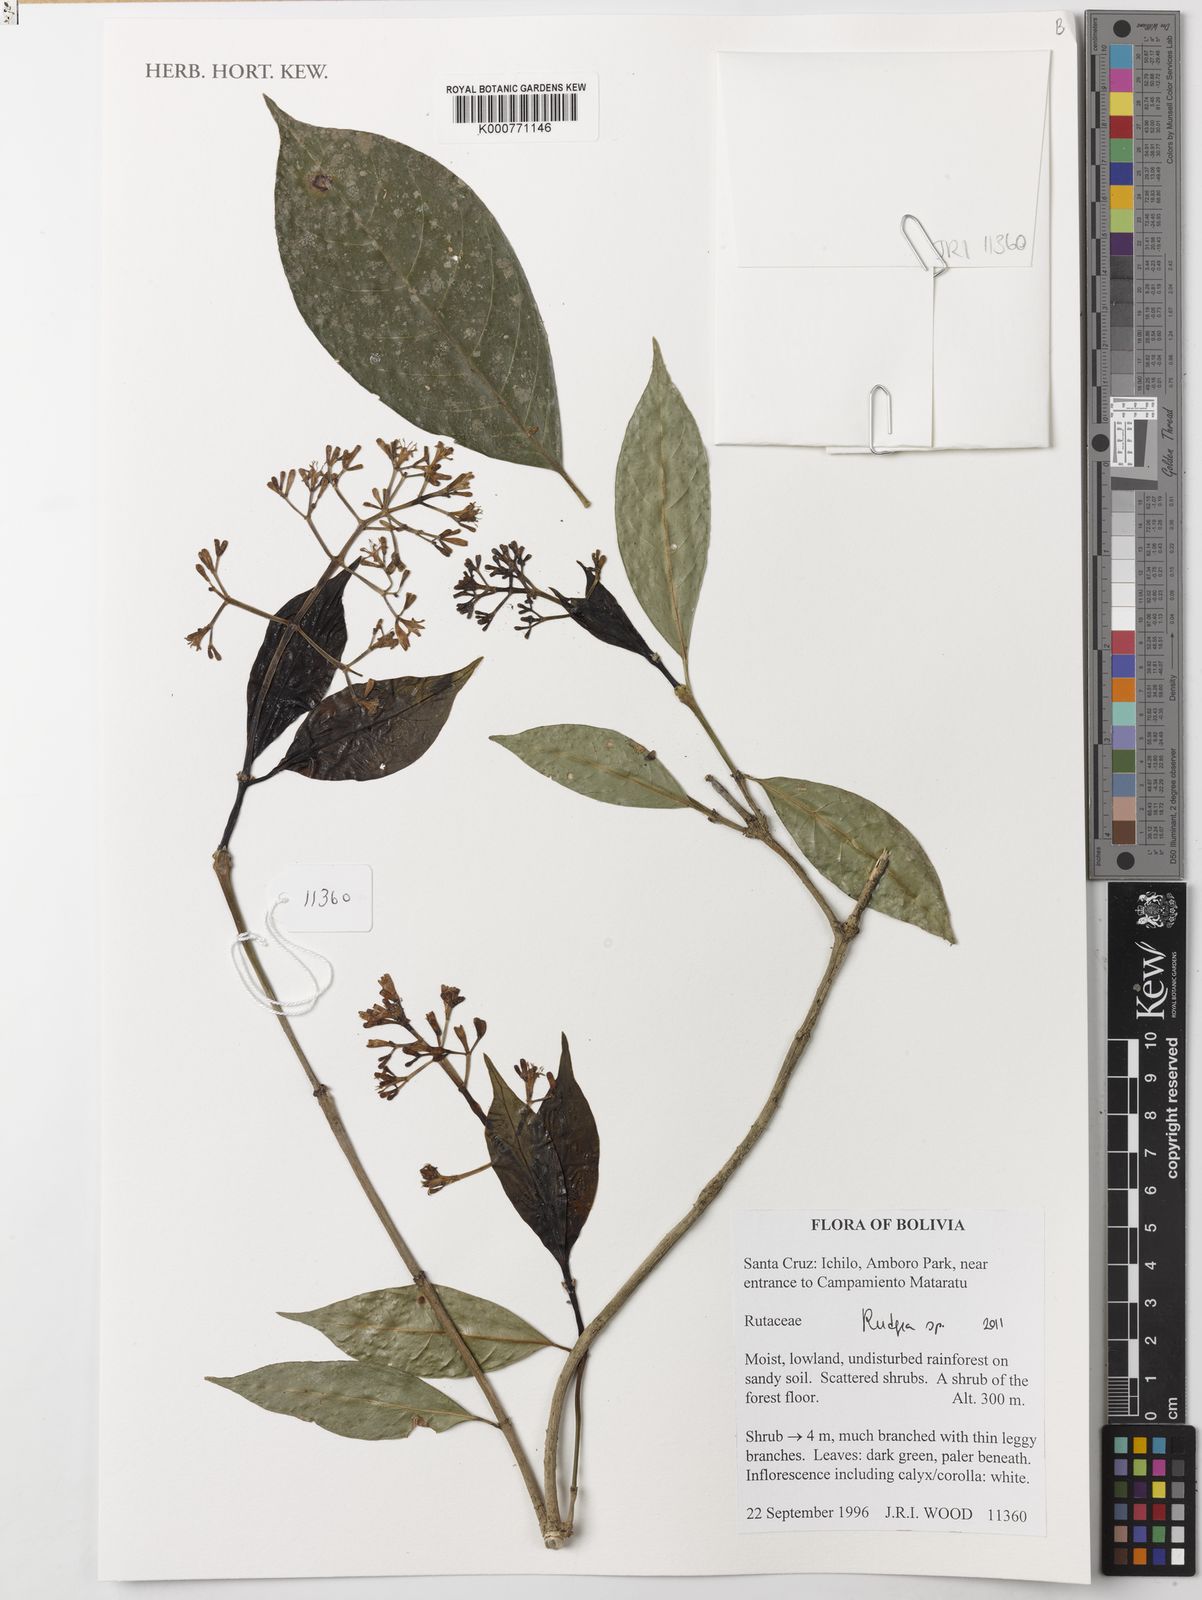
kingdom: Plantae
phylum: Tracheophyta
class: Magnoliopsida
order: Gentianales
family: Rubiaceae
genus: Rudgea
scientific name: Rudgea obesiflora
